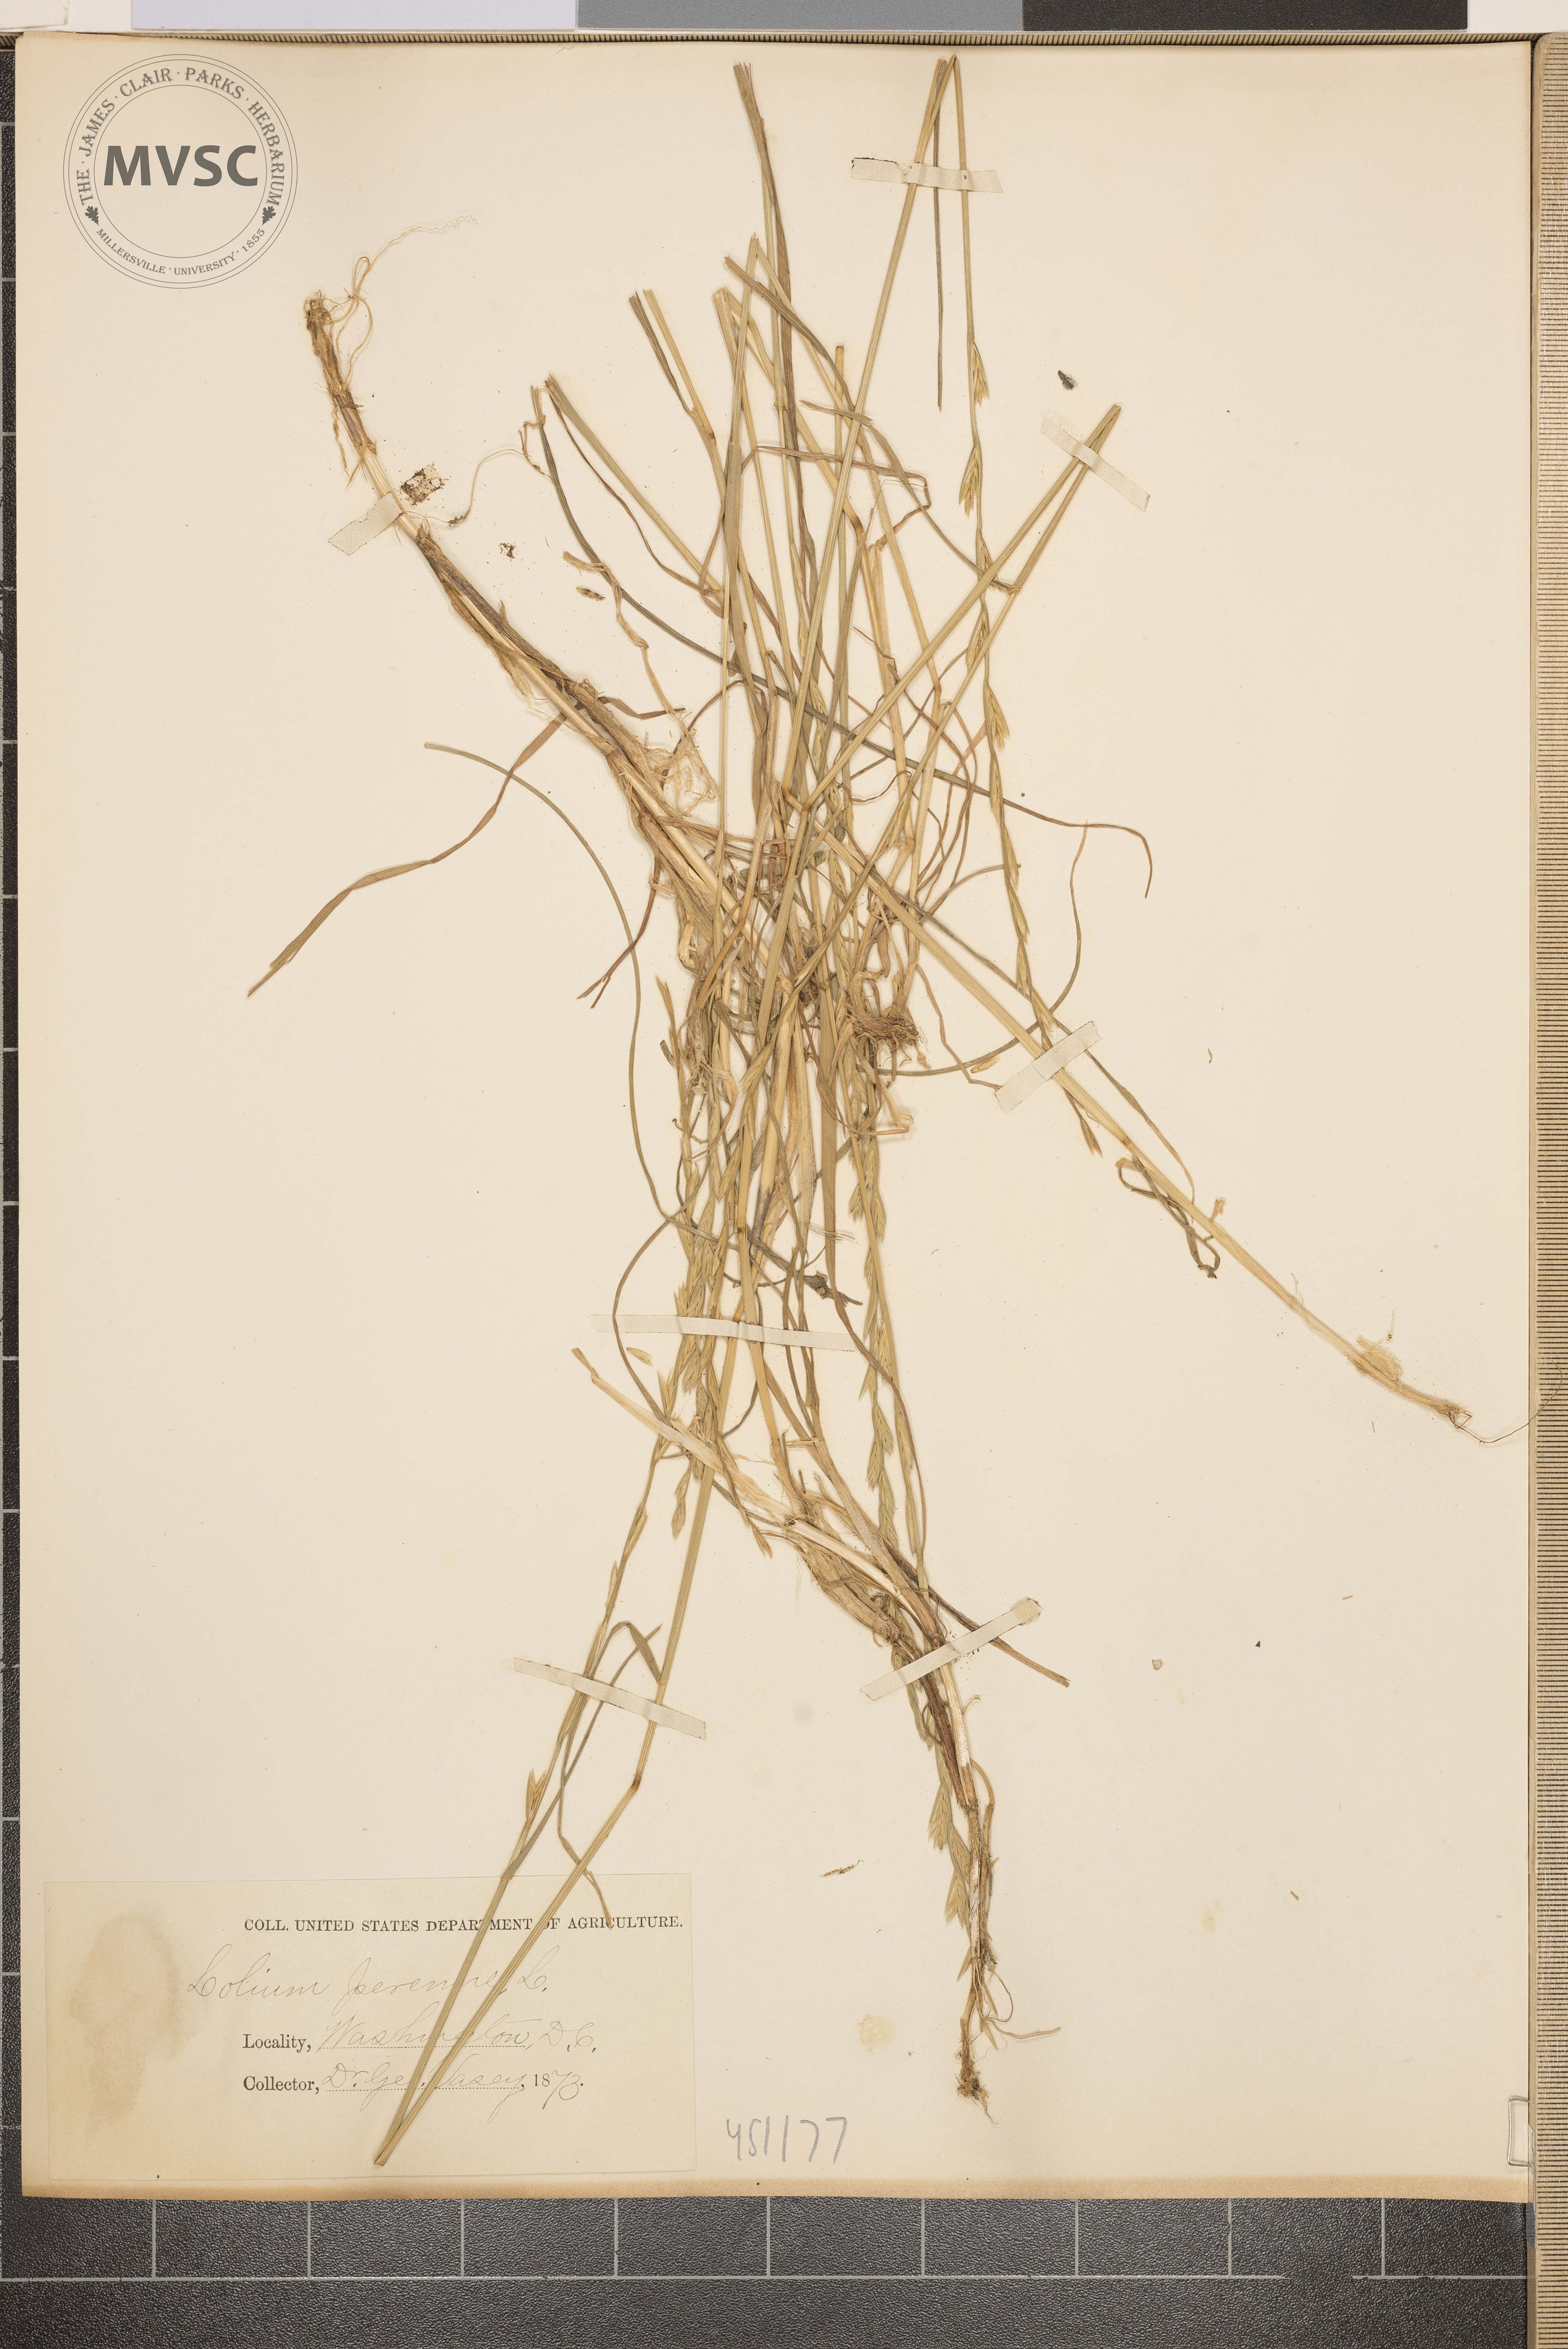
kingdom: Plantae
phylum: Tracheophyta
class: Liliopsida
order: Poales
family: Poaceae
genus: Lolium
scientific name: Lolium perenne
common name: Perennial ryegrass
